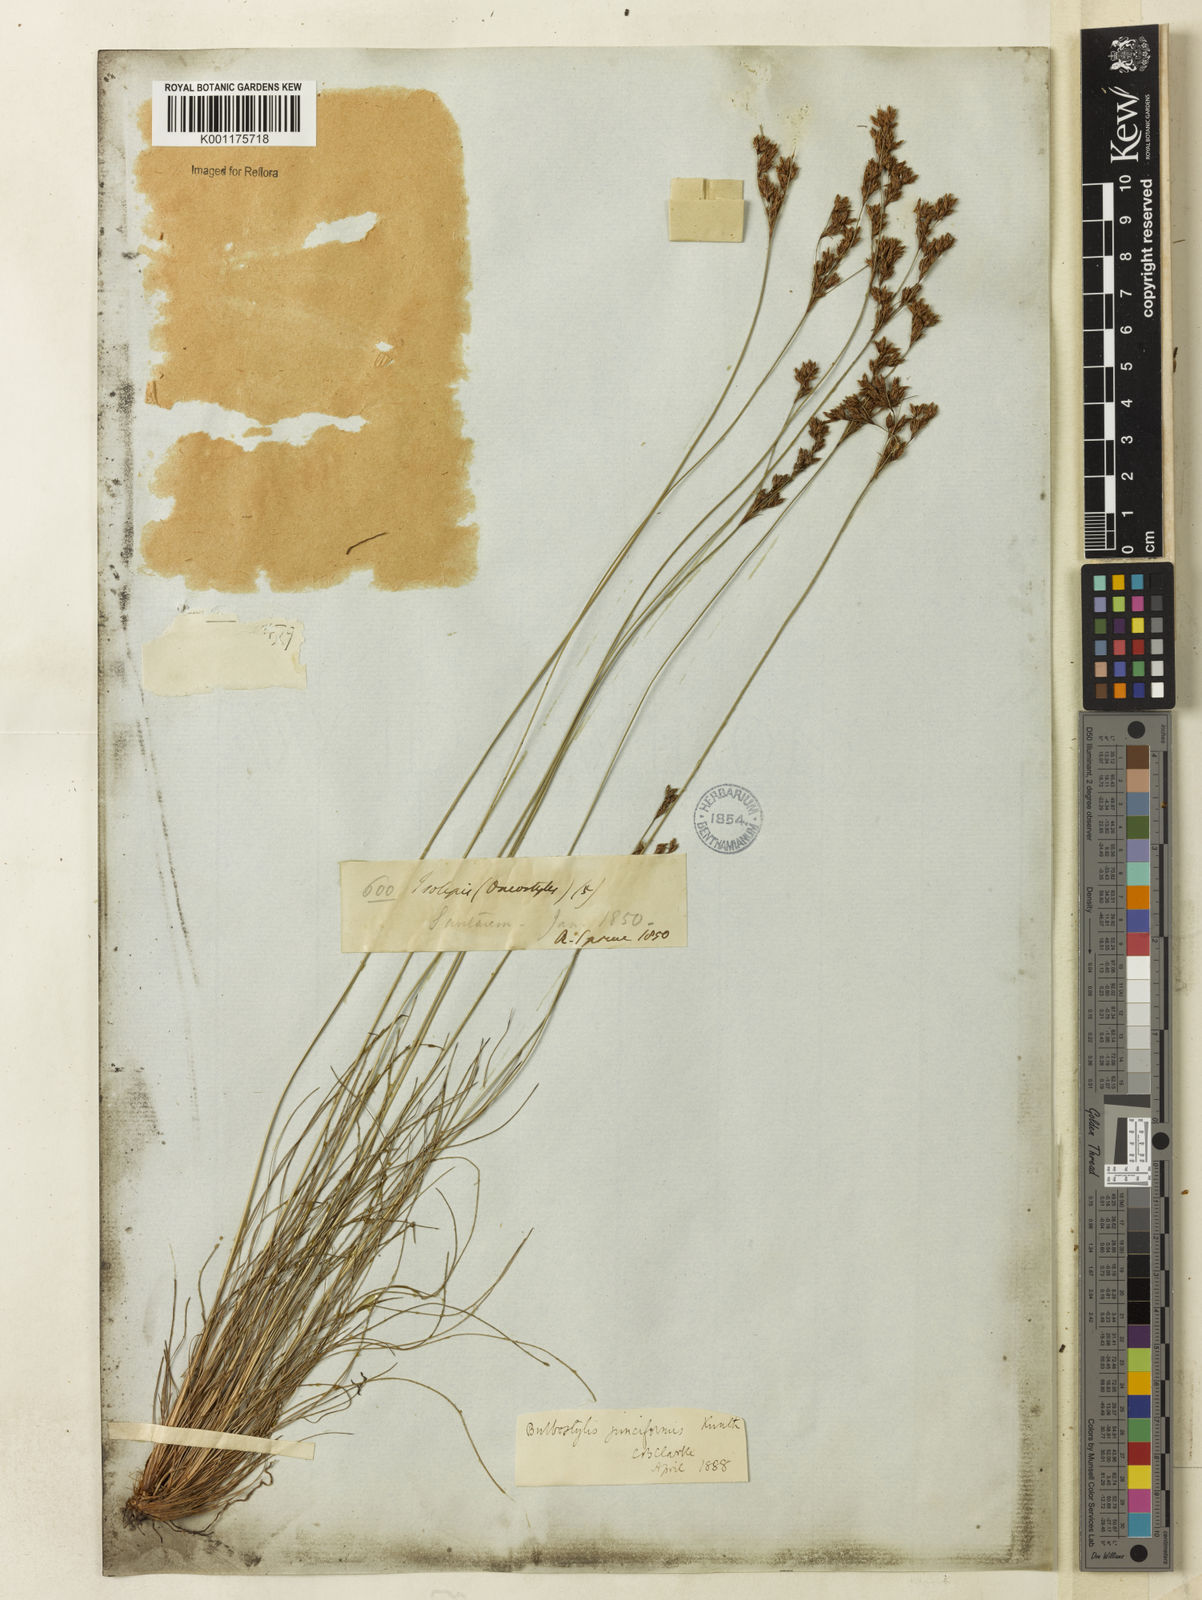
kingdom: Plantae
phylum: Tracheophyta
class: Liliopsida
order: Poales
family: Cyperaceae
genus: Bulbostylis
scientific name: Bulbostylis junciformis
